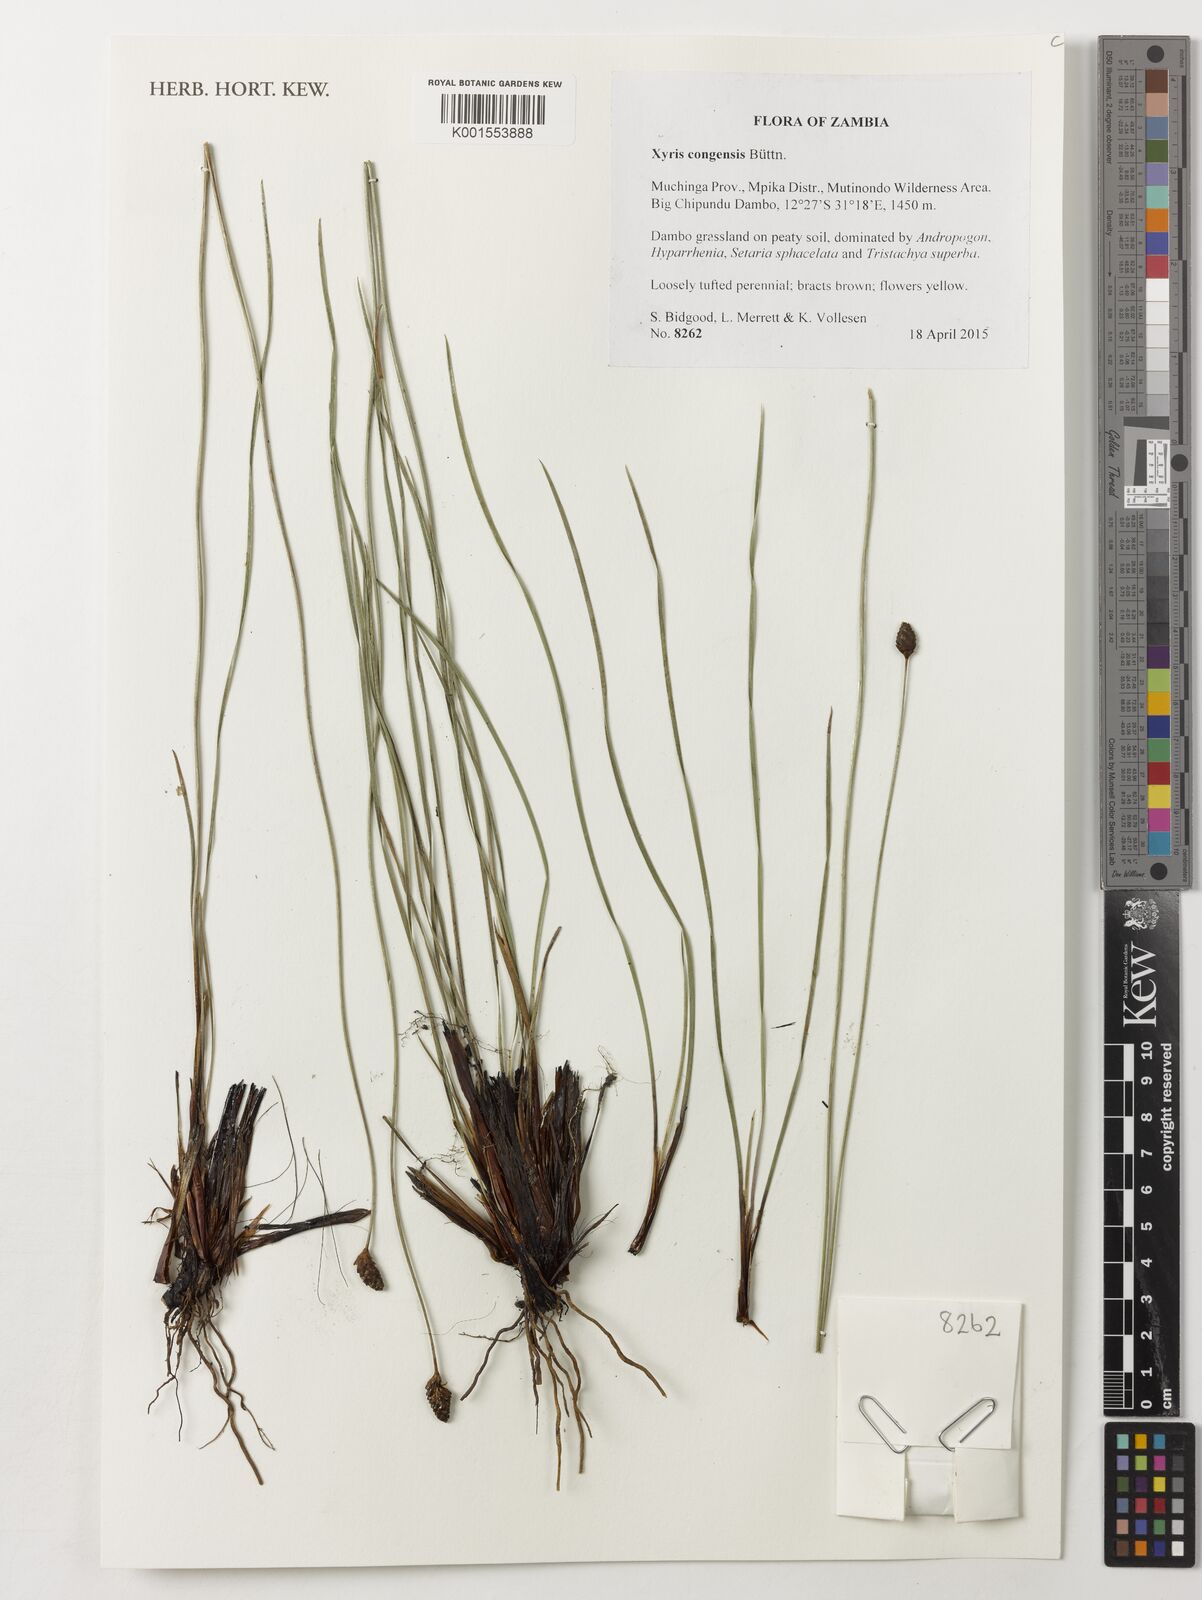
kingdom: Plantae
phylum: Tracheophyta
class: Liliopsida
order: Poales
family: Xyridaceae
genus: Xyris
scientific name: Xyris congensis
